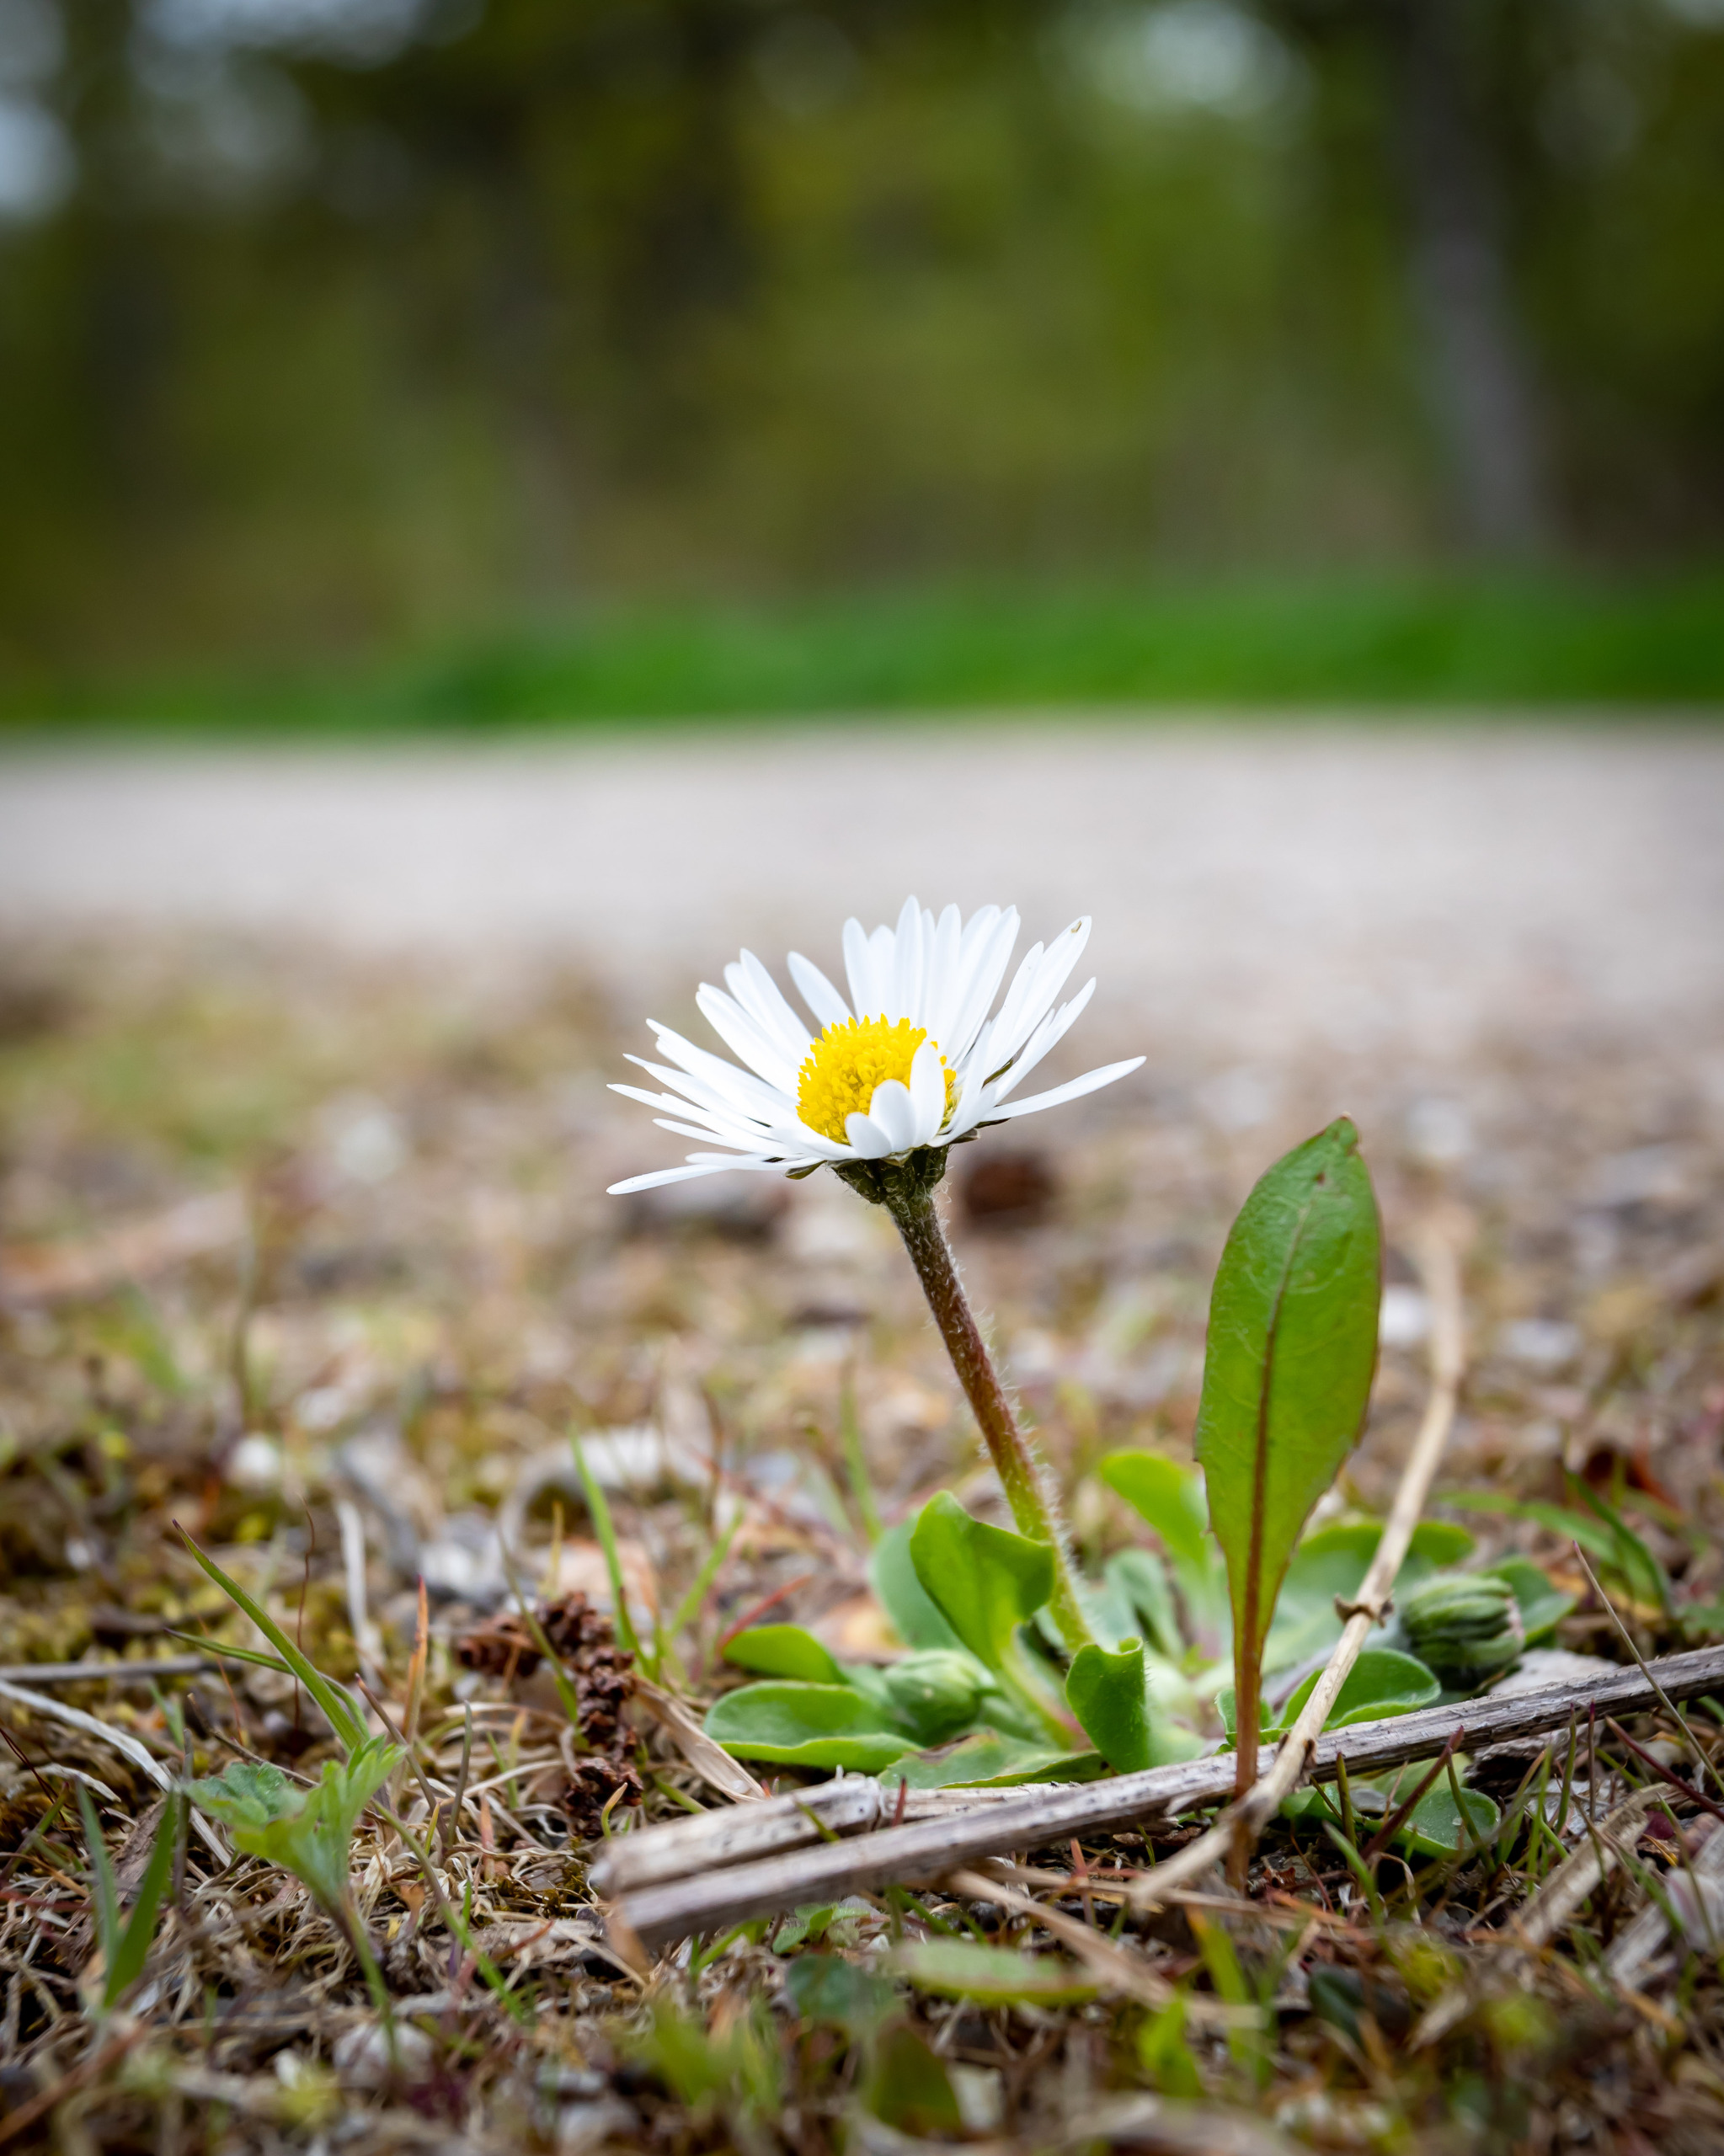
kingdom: Plantae
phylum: Tracheophyta
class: Magnoliopsida
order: Asterales
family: Asteraceae
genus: Bellis
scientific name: Bellis perennis
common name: Tusindfryd
